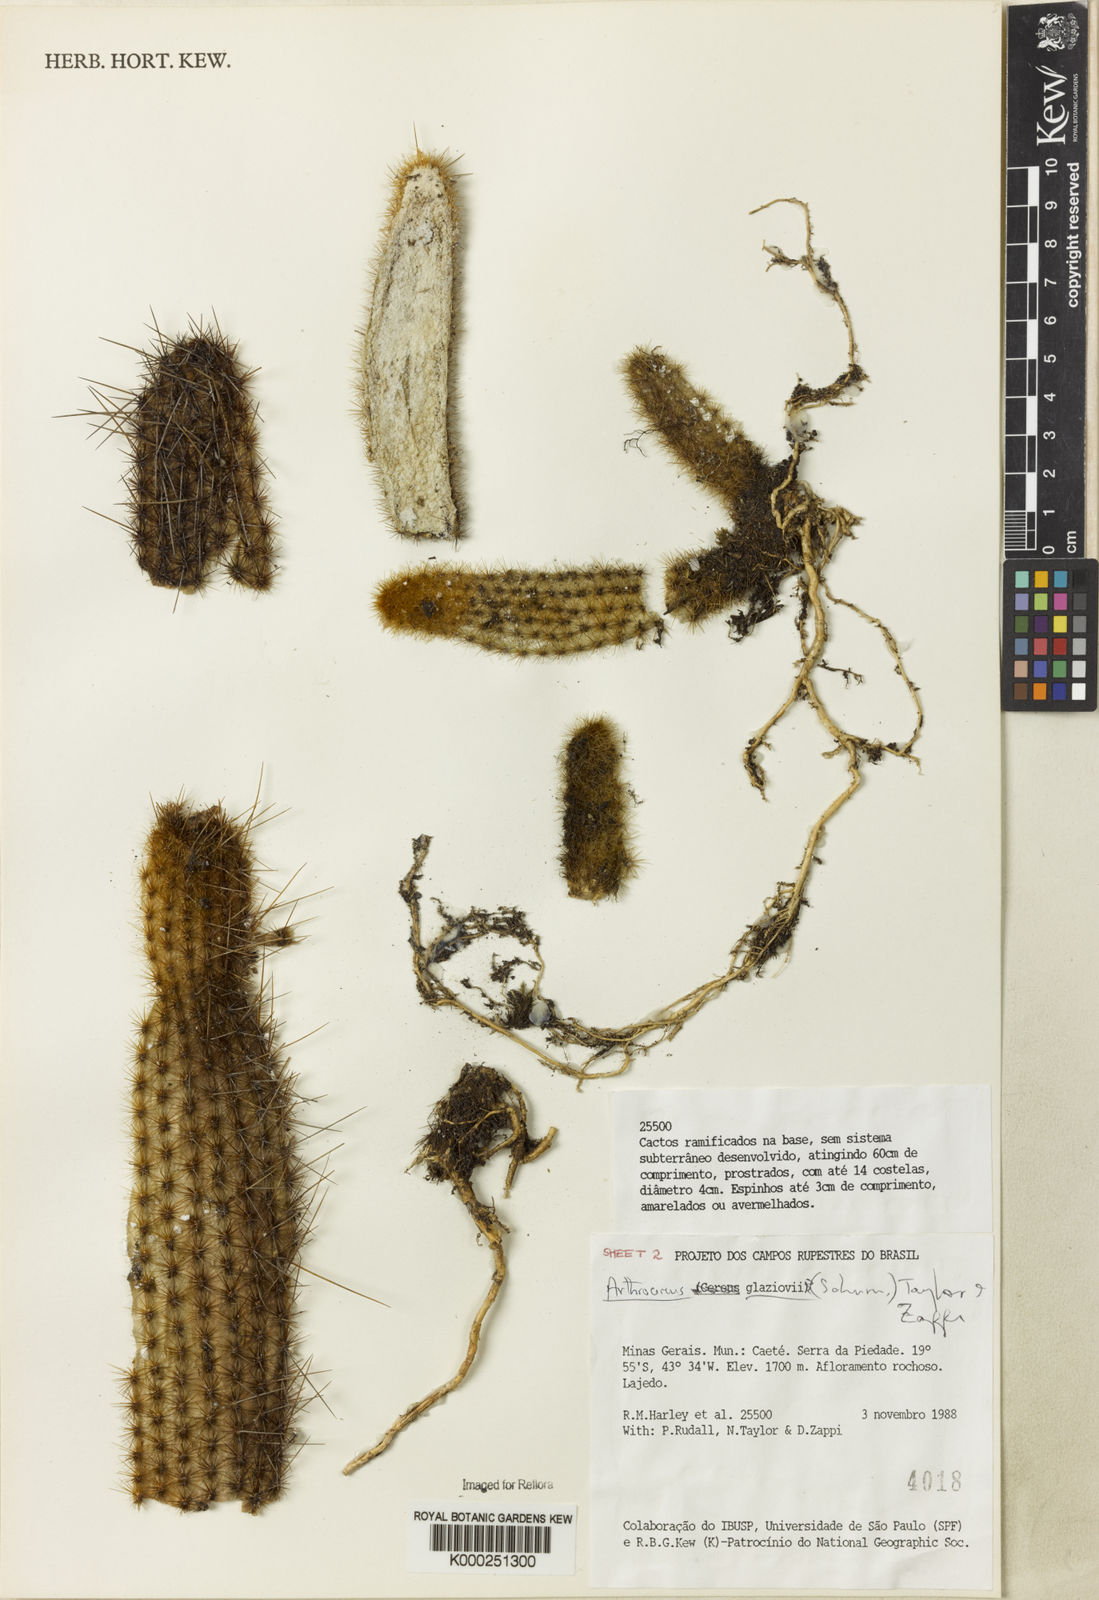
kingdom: Plantae
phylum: Tracheophyta
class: Magnoliopsida
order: Caryophyllales
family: Cactaceae
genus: Arthrocereus
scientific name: Arthrocereus glaziovii
